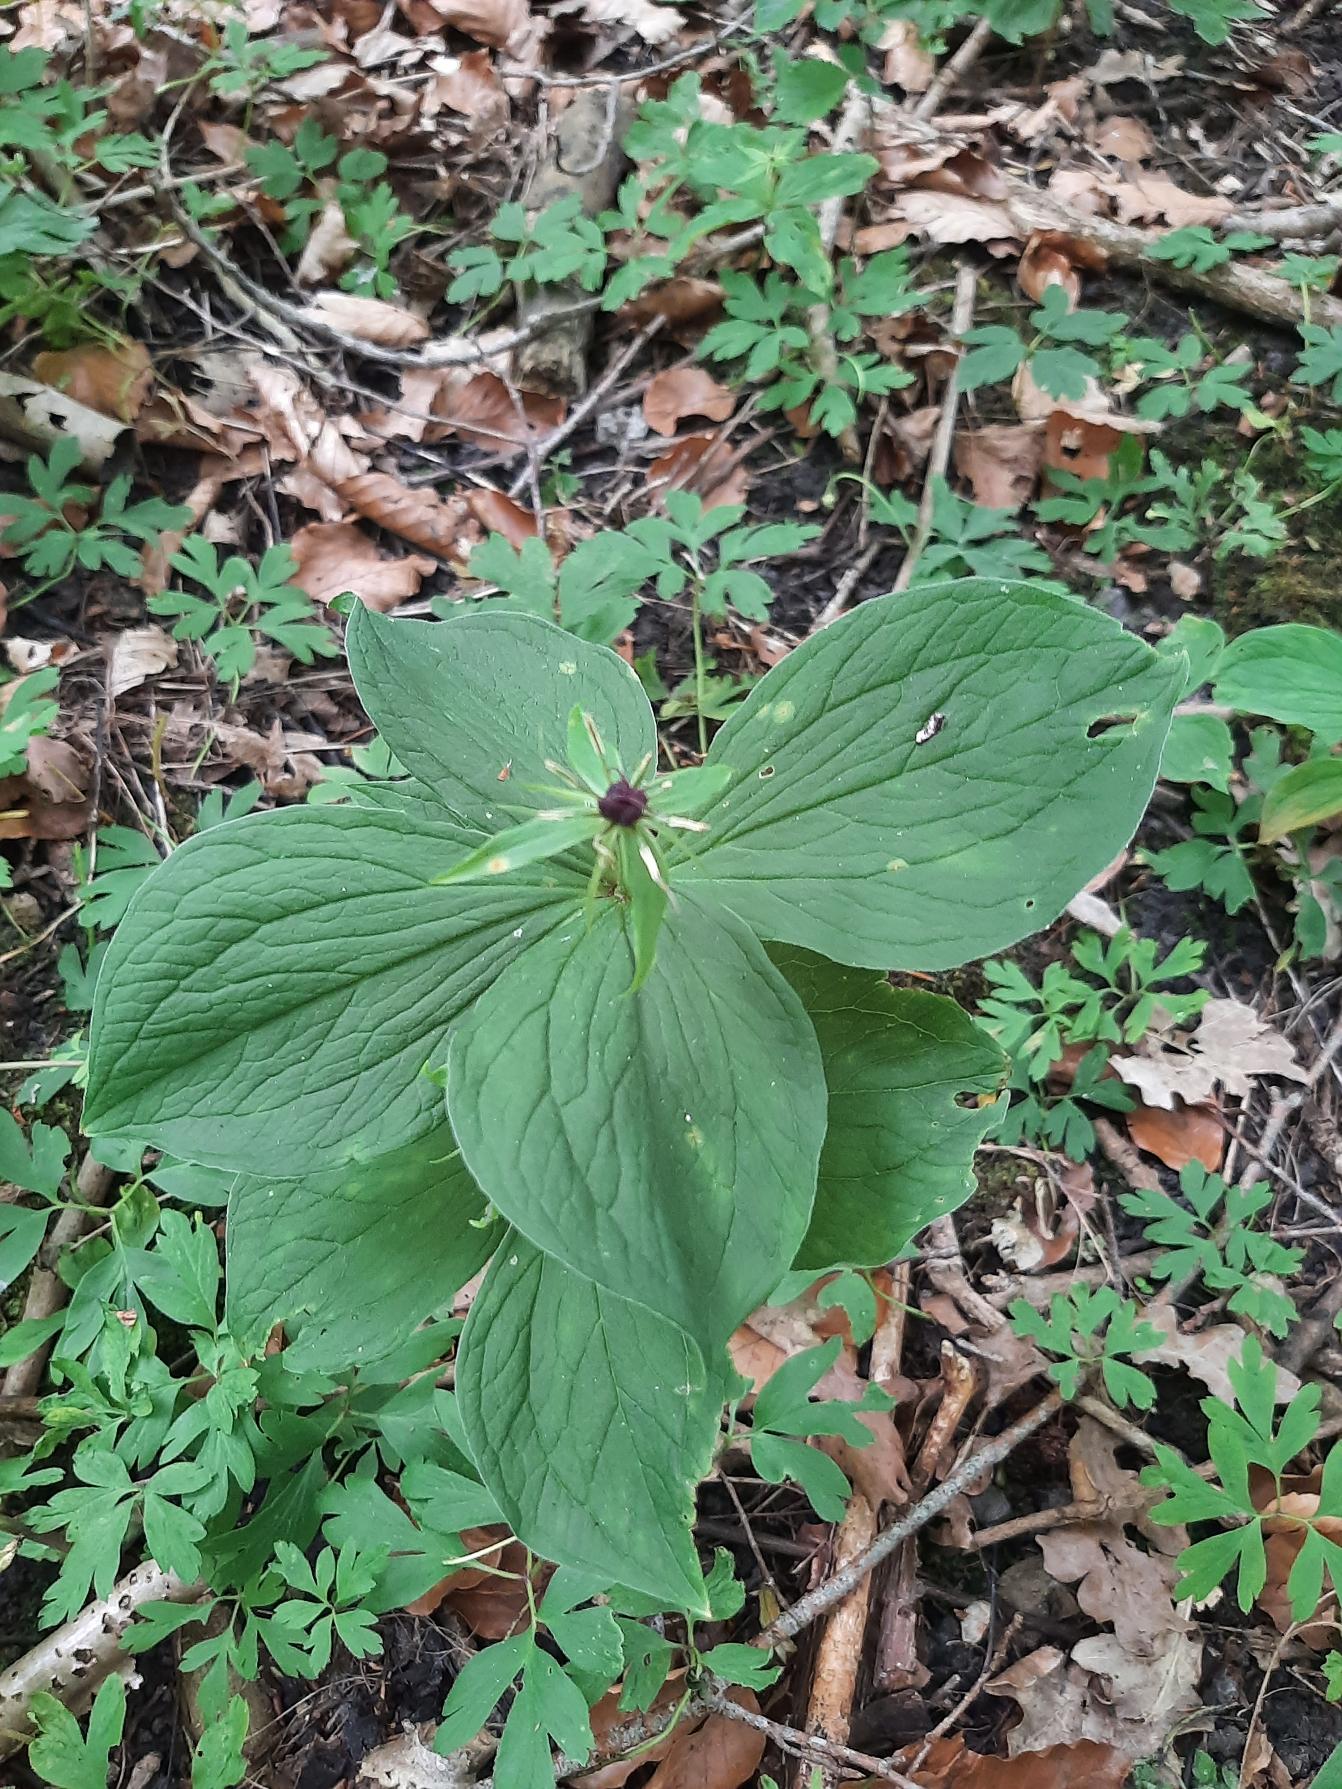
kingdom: Plantae
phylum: Tracheophyta
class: Liliopsida
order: Liliales
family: Melanthiaceae
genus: Paris
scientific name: Paris quadrifolia
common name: Firblad
